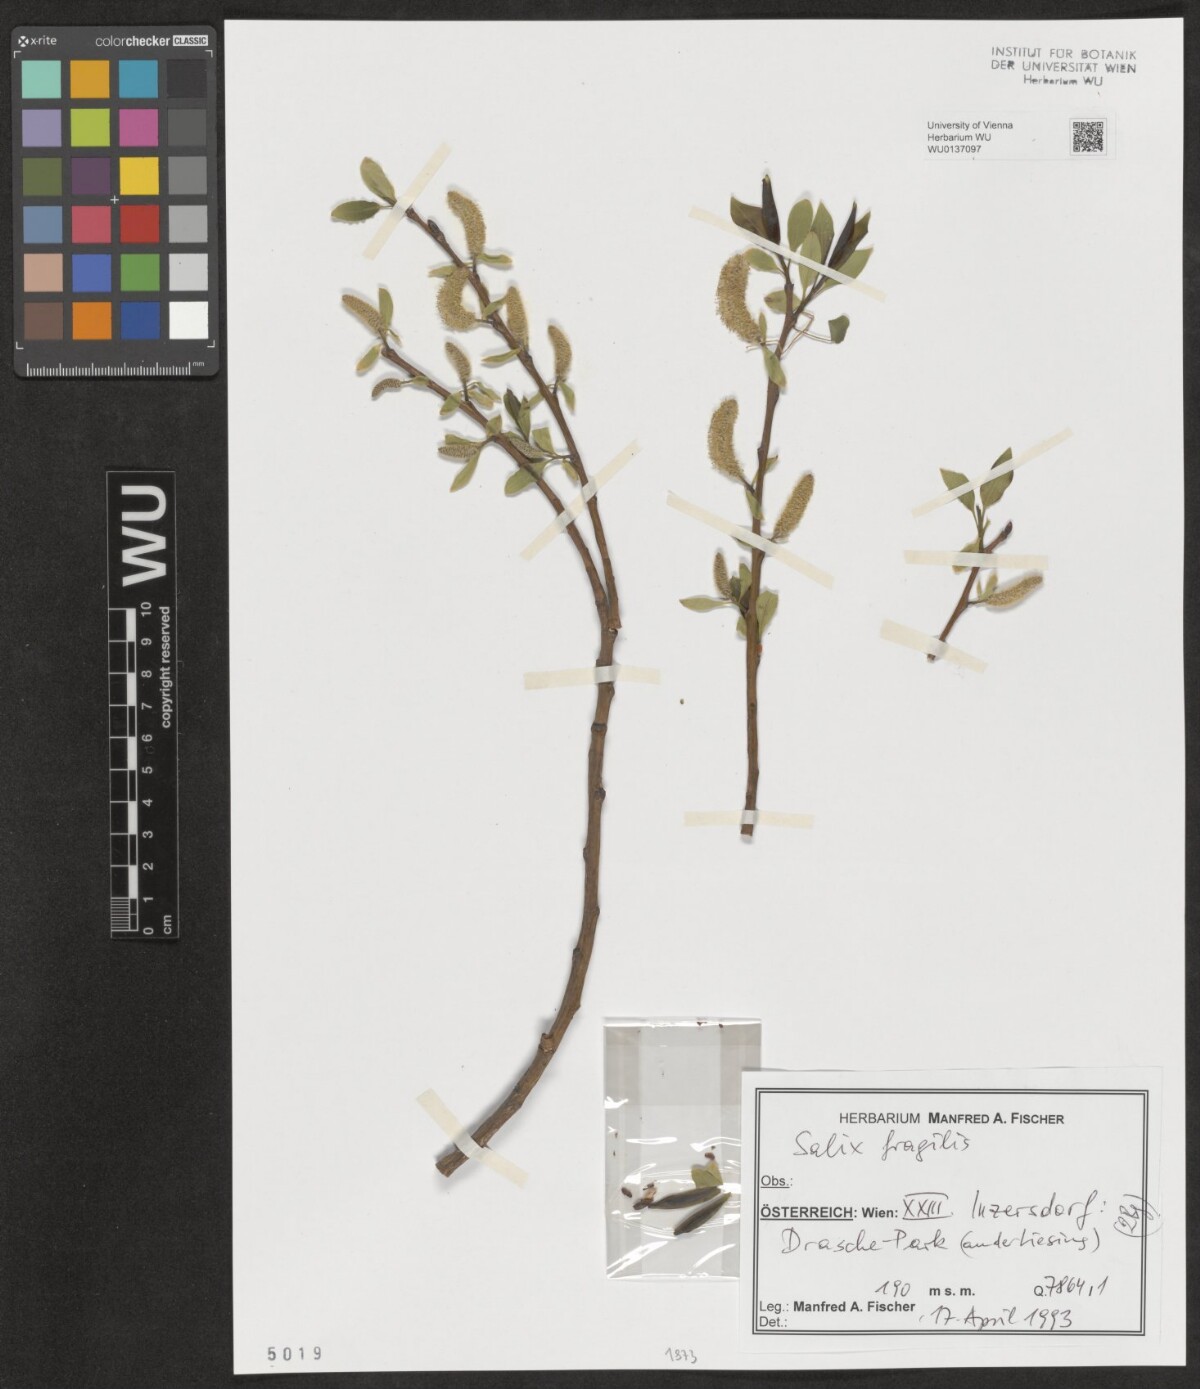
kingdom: Plantae
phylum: Tracheophyta
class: Magnoliopsida
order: Malpighiales
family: Salicaceae
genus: Salix
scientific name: Salix fragilis
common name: Crack willow
